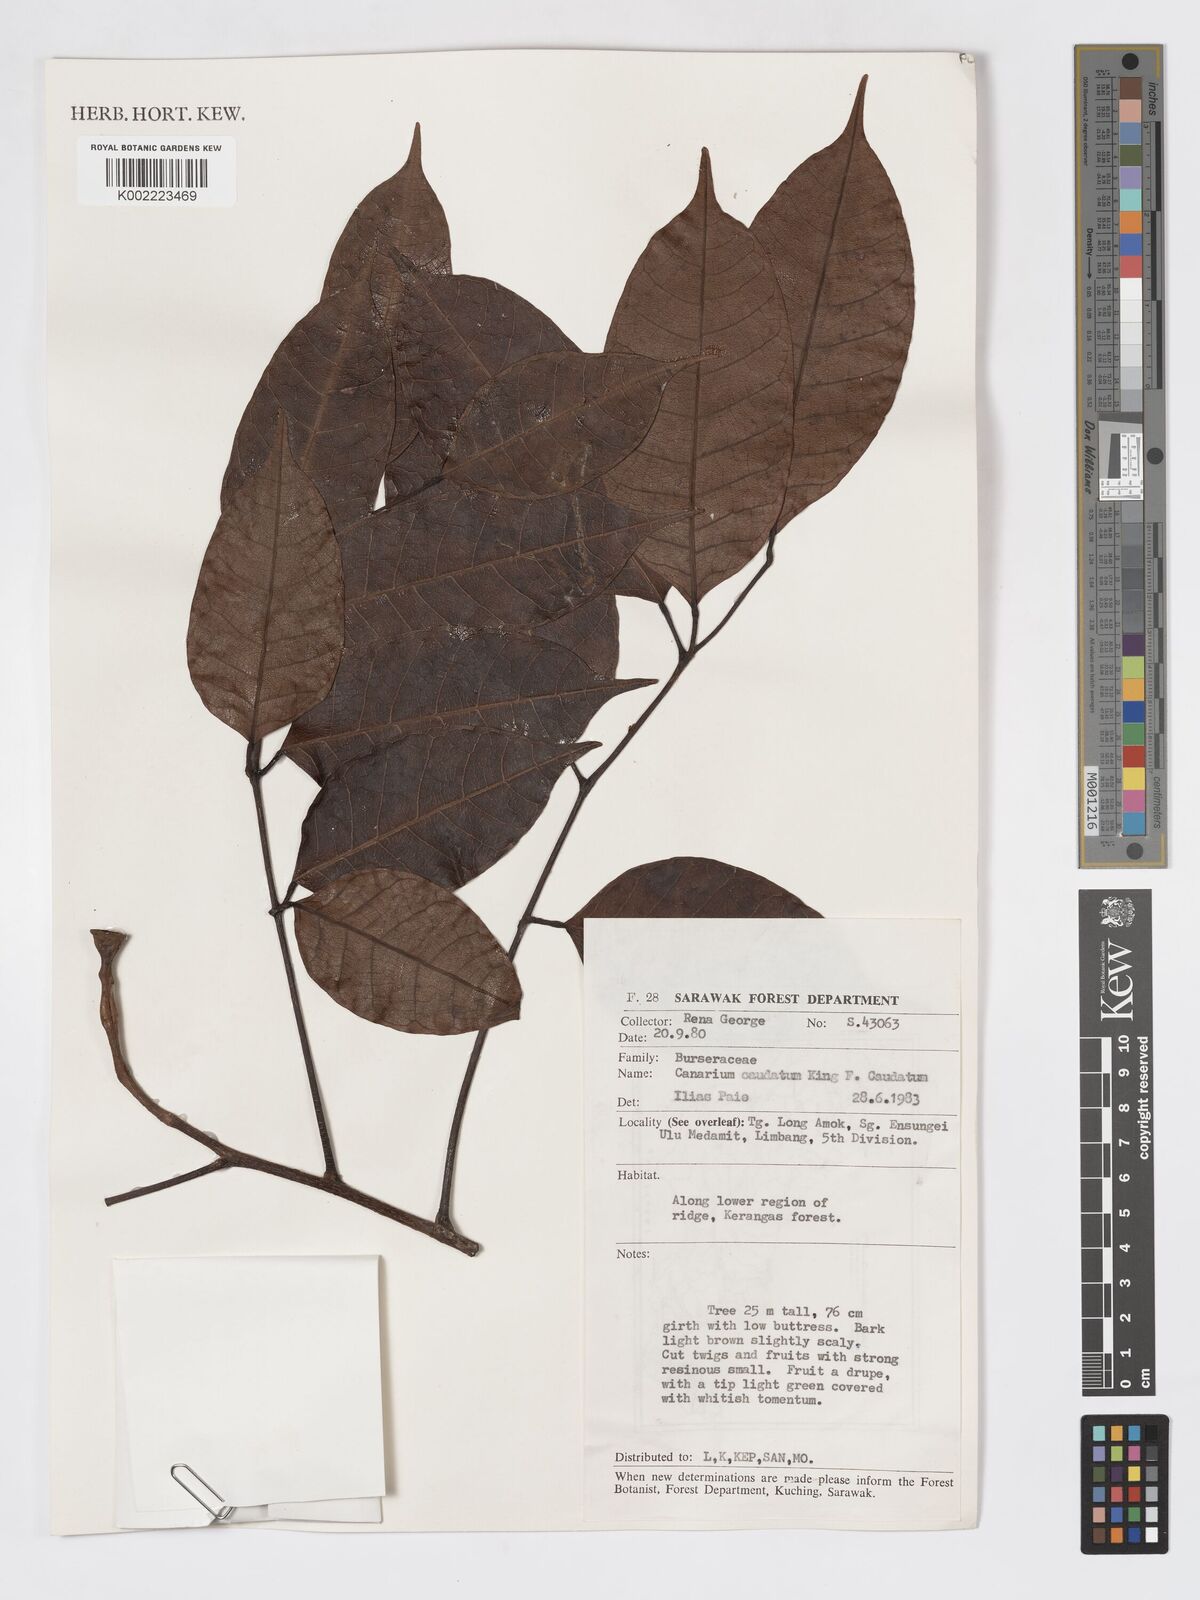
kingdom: Plantae
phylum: Tracheophyta
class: Magnoliopsida
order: Sapindales
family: Burseraceae
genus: Canarium
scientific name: Canarium caudatum
